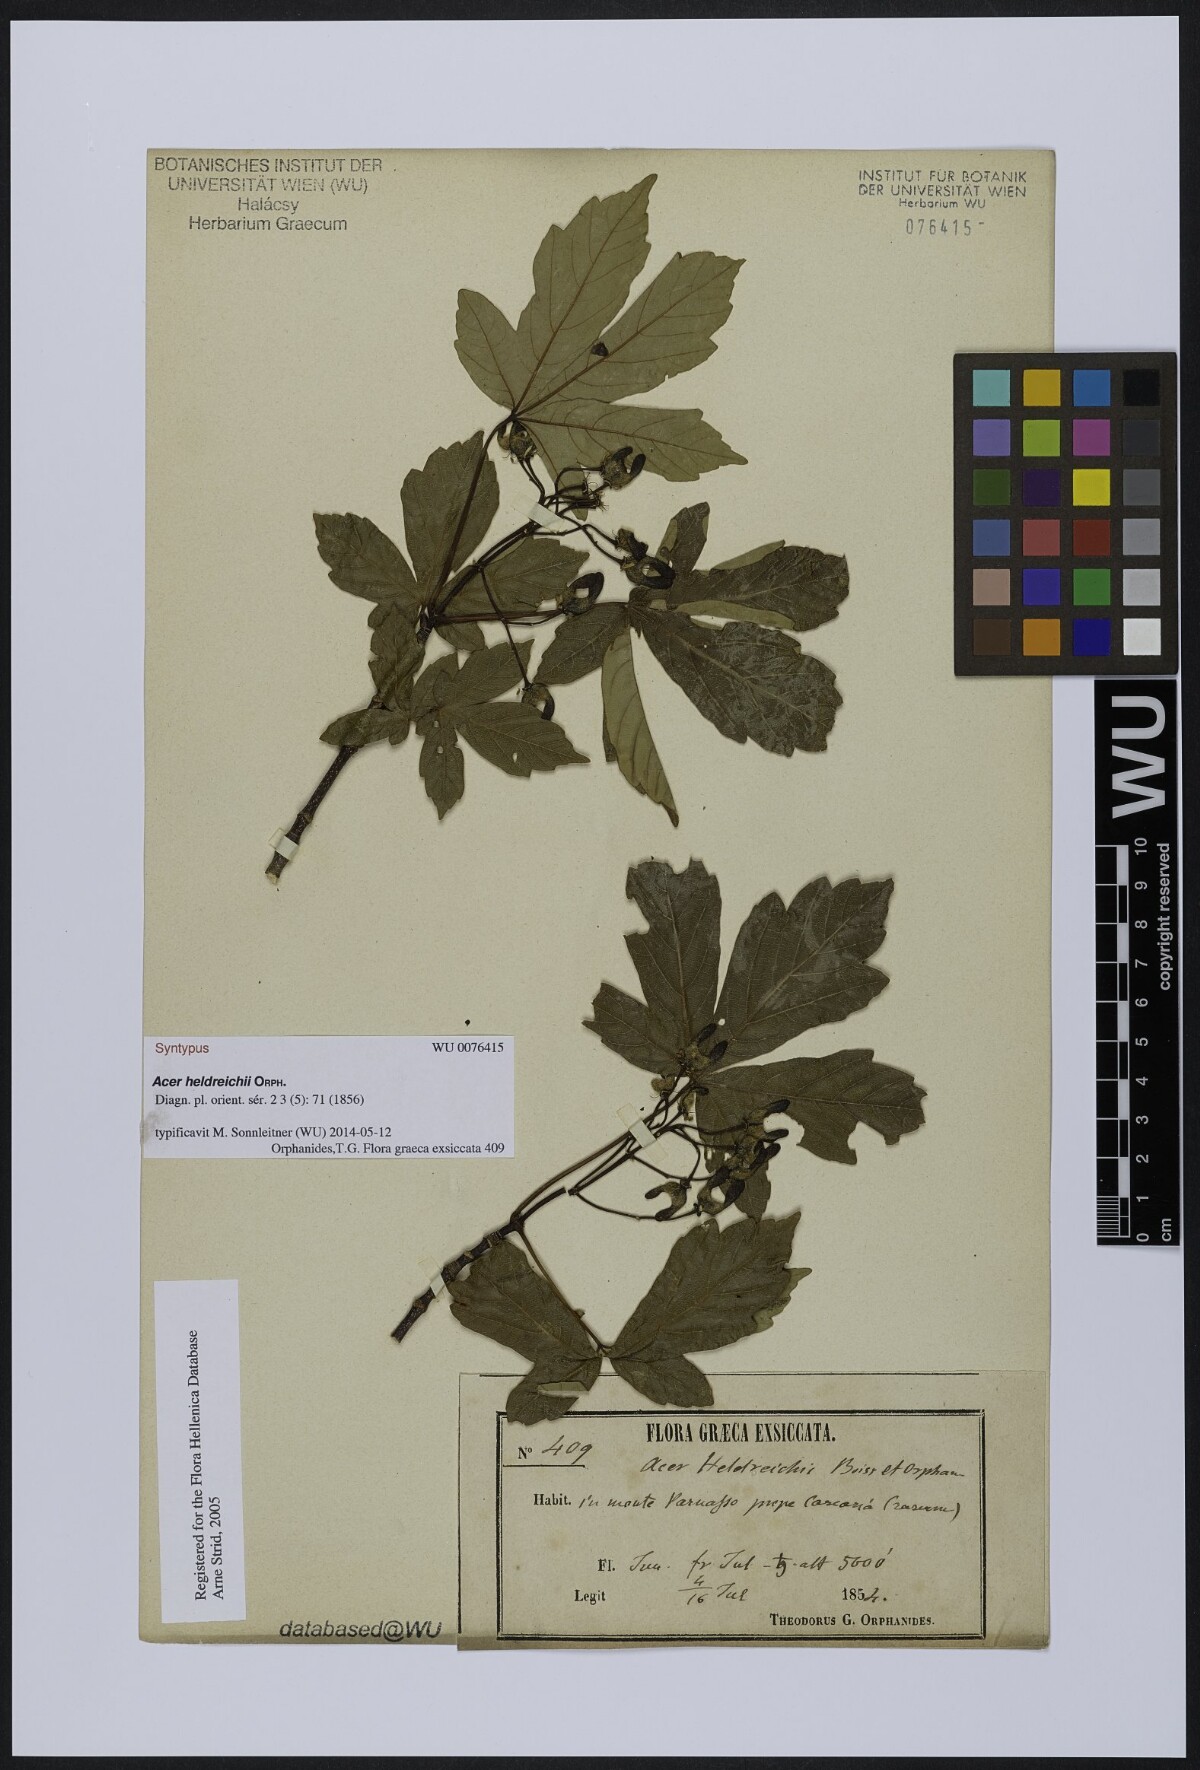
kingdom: Plantae
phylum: Tracheophyta
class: Magnoliopsida
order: Sapindales
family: Sapindaceae
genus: Acer
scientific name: Acer heldreichii
